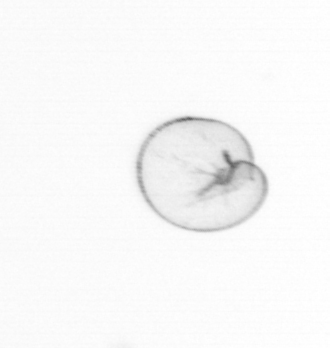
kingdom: Chromista
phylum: Myzozoa
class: Dinophyceae
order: Noctilucales
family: Noctilucaceae
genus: Noctiluca
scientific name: Noctiluca scintillans
